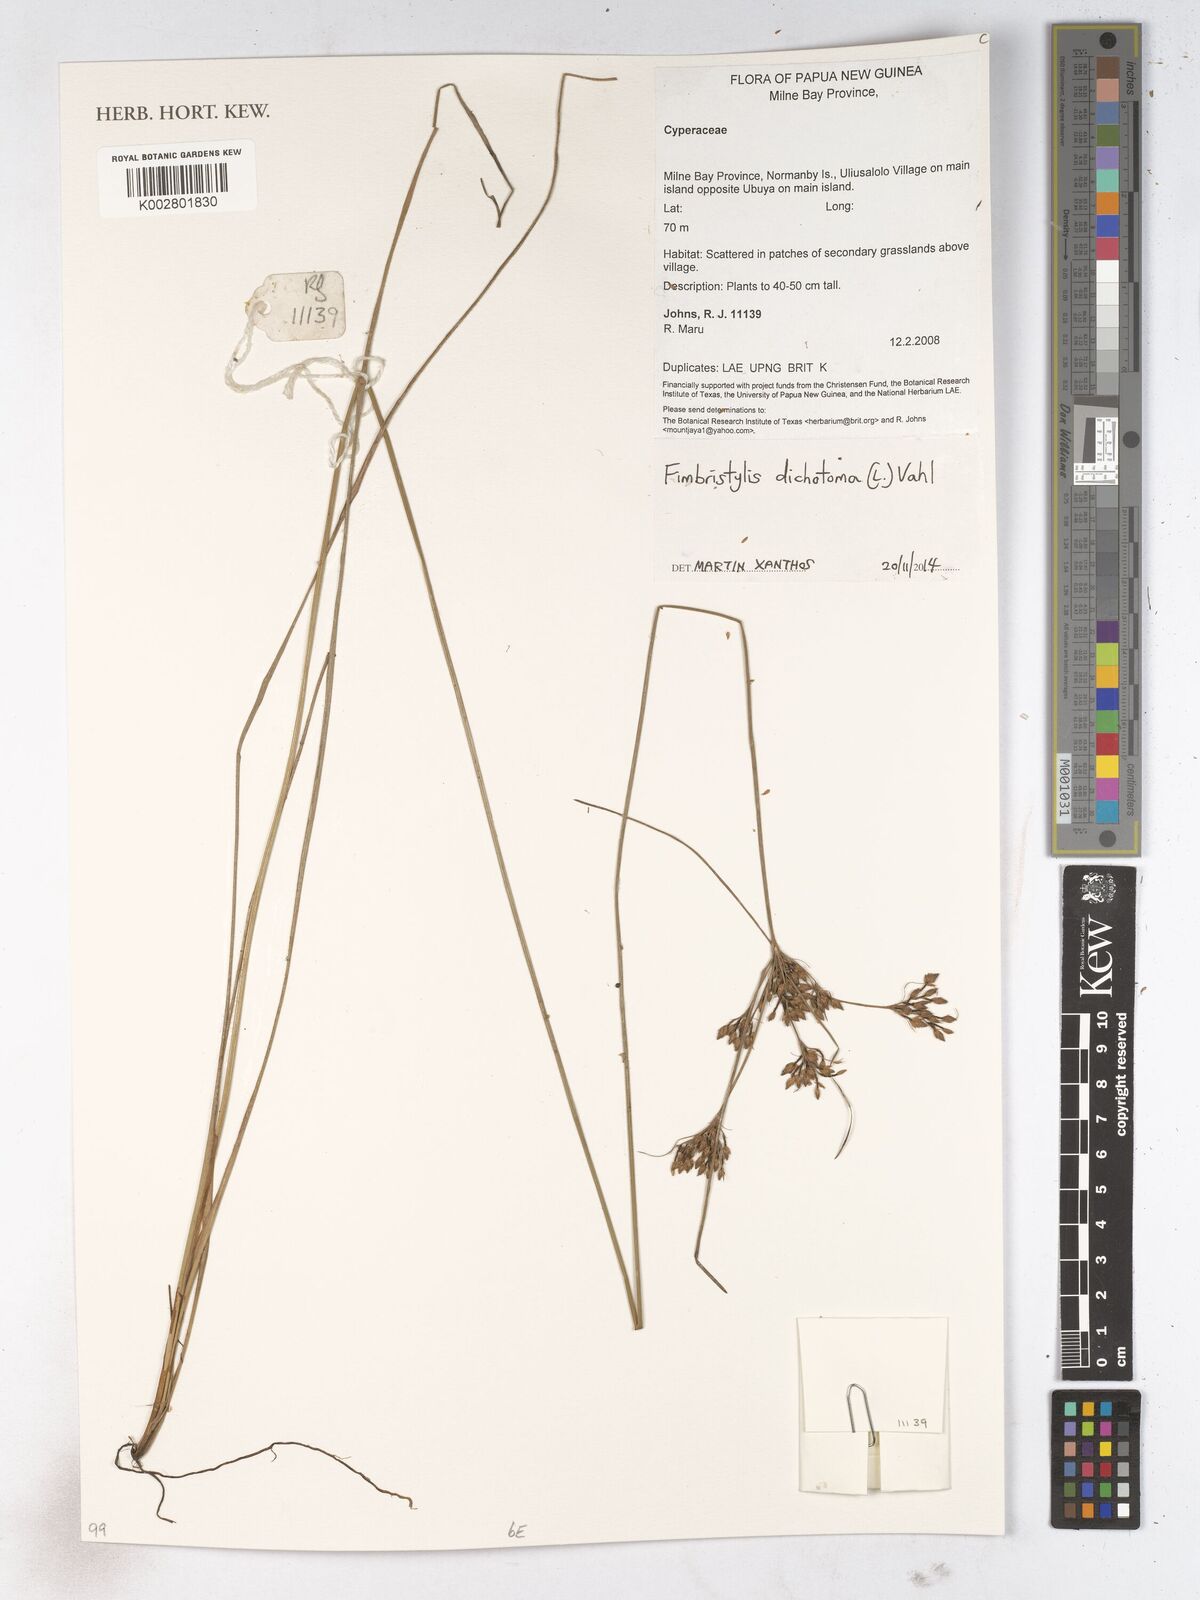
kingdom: Plantae
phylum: Tracheophyta
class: Liliopsida
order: Poales
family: Cyperaceae
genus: Fimbristylis
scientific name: Fimbristylis dichotoma
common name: Forked fimbry
